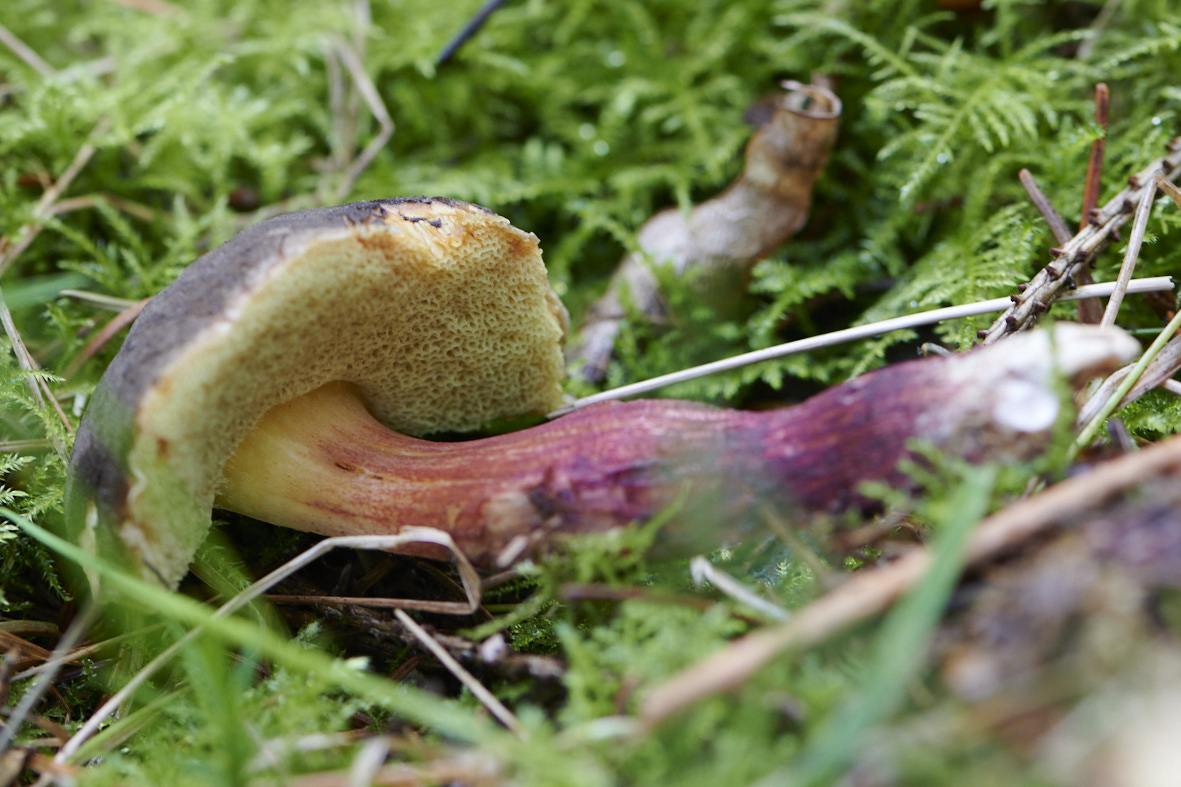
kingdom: Fungi
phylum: Basidiomycota
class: Agaricomycetes
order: Boletales
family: Boletaceae
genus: Xerocomellus
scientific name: Xerocomellus
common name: dværgrørhat
